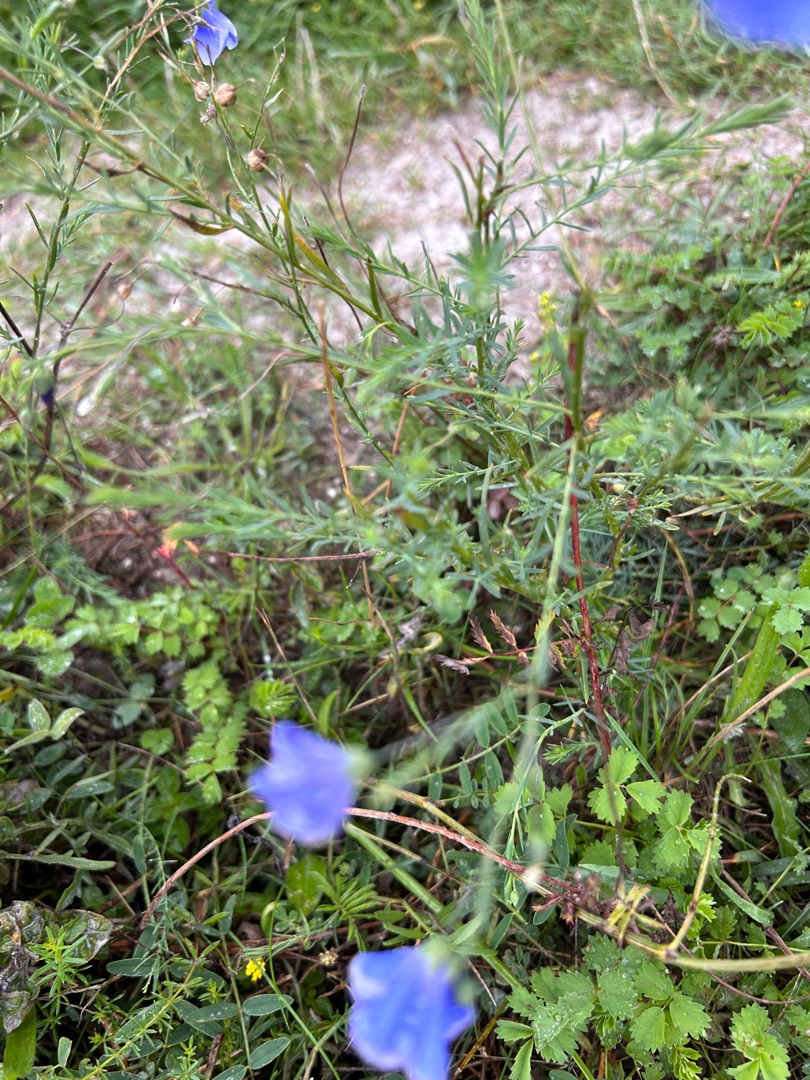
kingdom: Plantae
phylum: Tracheophyta
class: Magnoliopsida
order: Malpighiales
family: Linaceae
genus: Linum
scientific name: Linum austriacum
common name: Østrigsk hør
